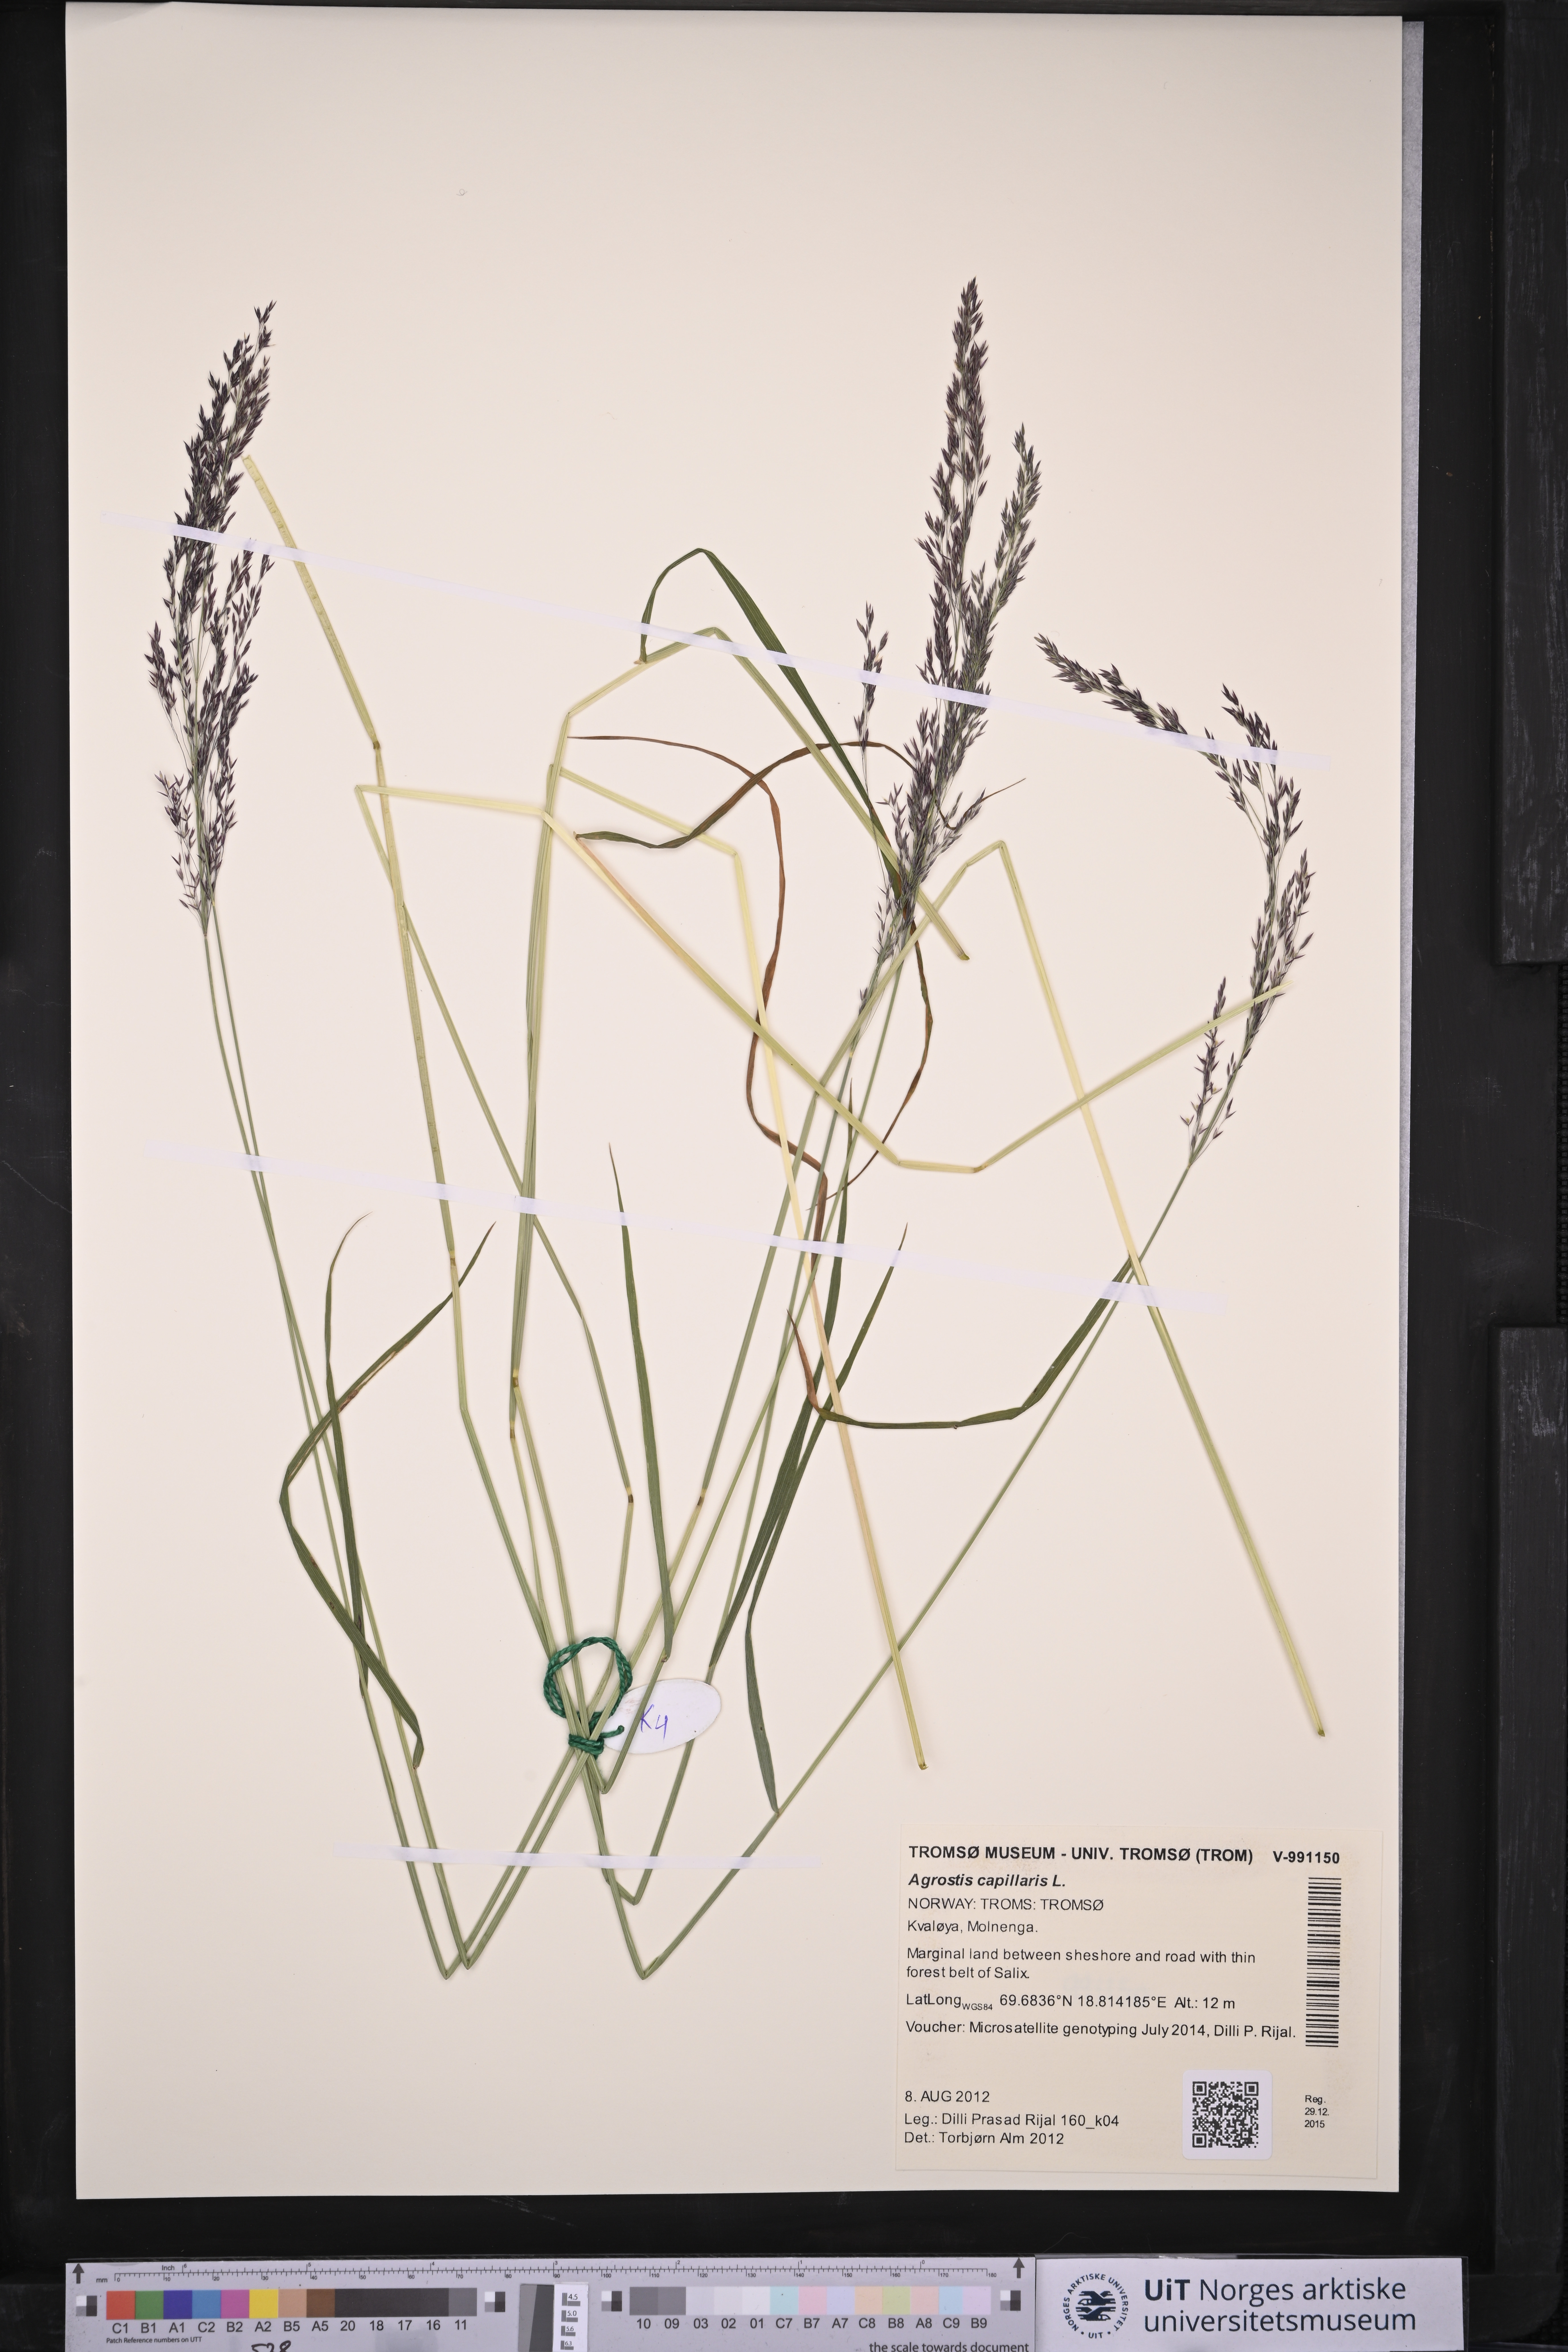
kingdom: Plantae
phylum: Tracheophyta
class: Liliopsida
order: Poales
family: Poaceae
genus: Agrostis
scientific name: Agrostis capillaris
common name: Colonial bentgrass
